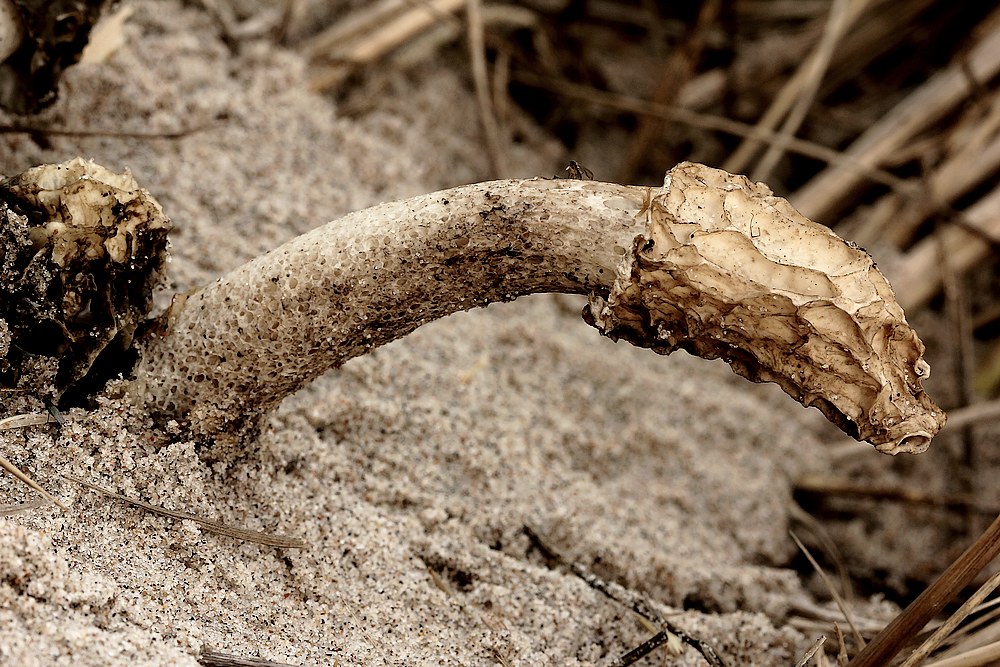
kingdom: Fungi
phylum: Basidiomycota
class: Agaricomycetes
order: Phallales
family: Phallaceae
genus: Phallus
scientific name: Phallus hadriani
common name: sand-stinksvamp
